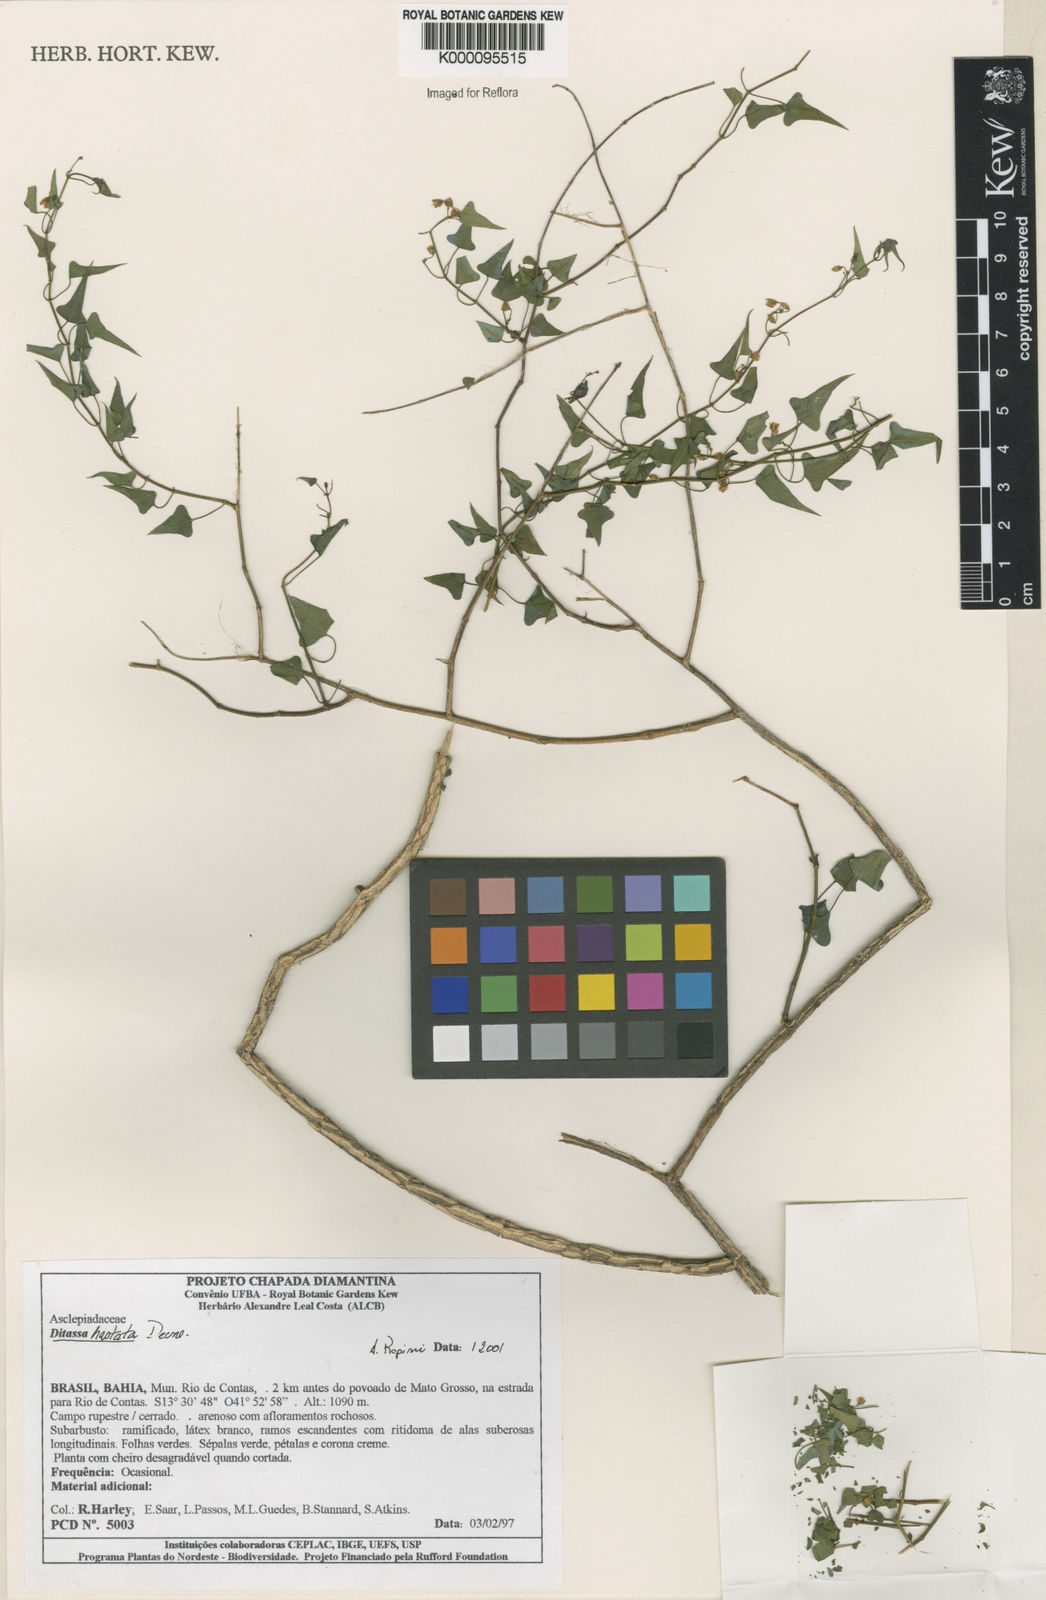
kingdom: Plantae
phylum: Tracheophyta
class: Magnoliopsida
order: Gentianales
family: Apocynaceae
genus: Ditassa
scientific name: Ditassa hastata
